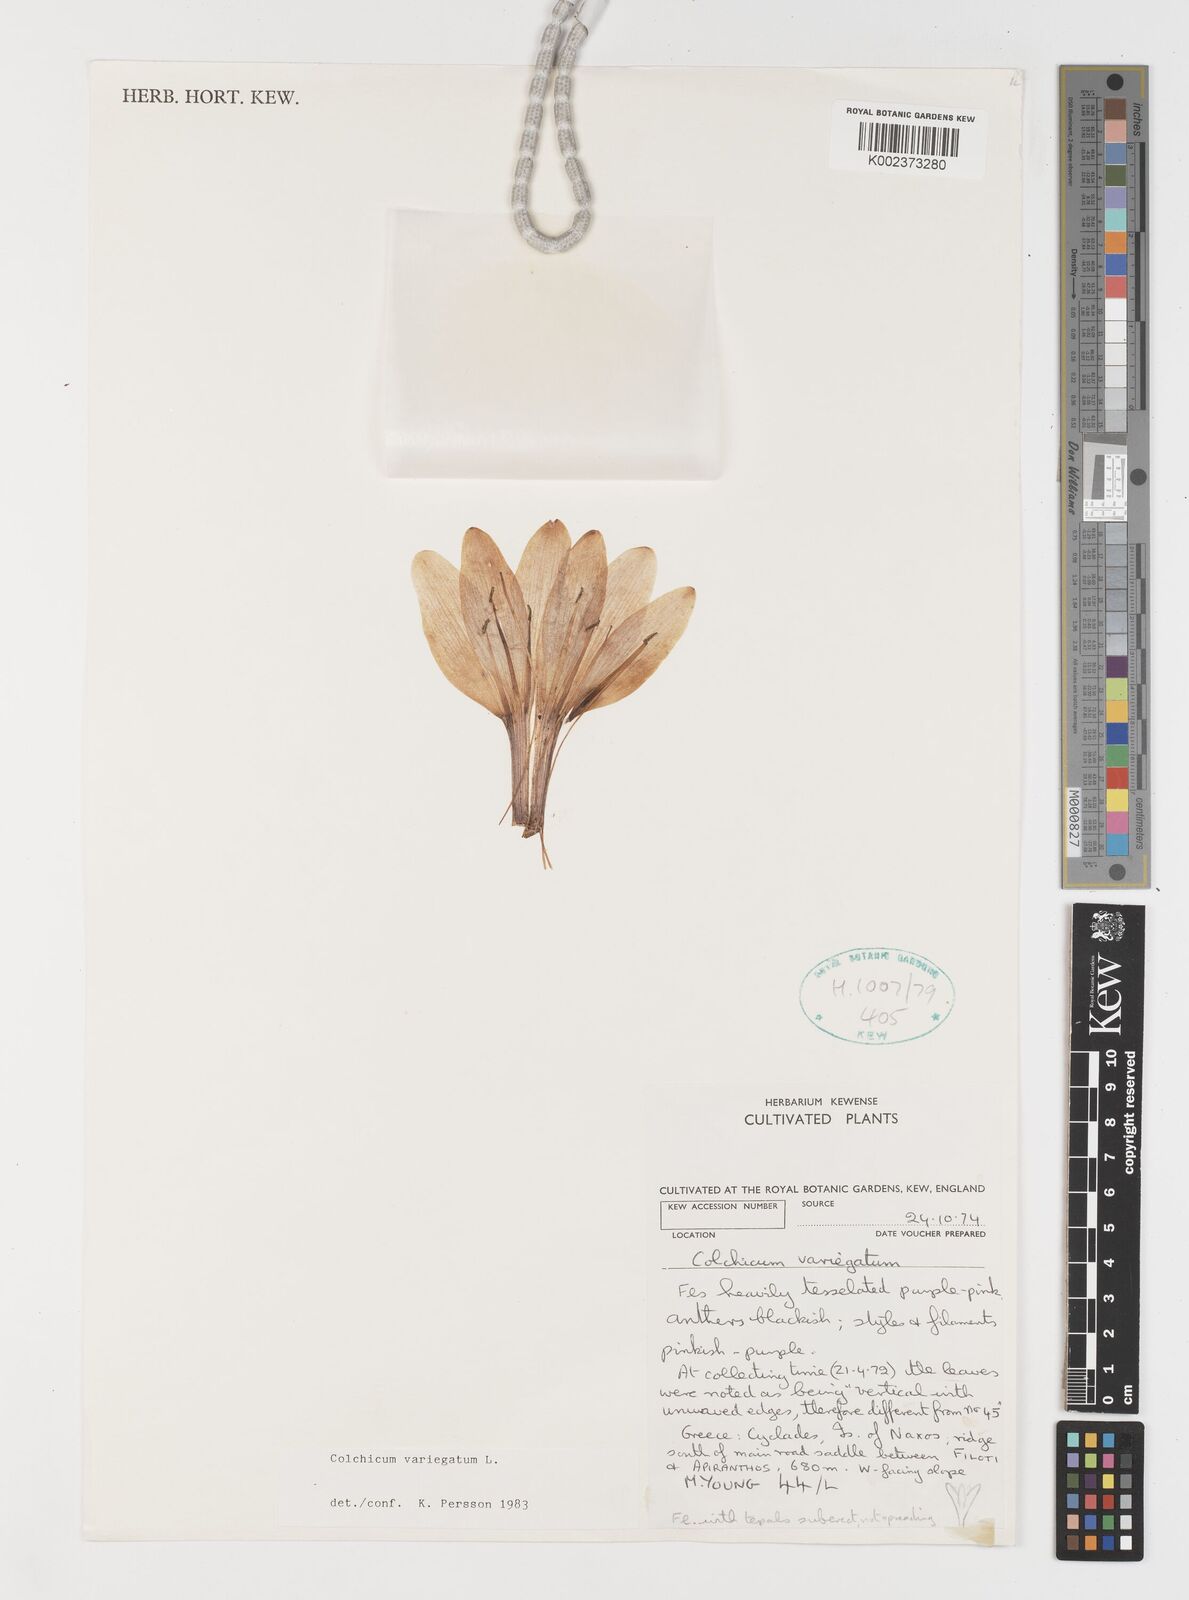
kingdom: Plantae
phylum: Tracheophyta
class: Liliopsida
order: Liliales
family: Colchicaceae
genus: Colchicum
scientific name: Colchicum variegatum
